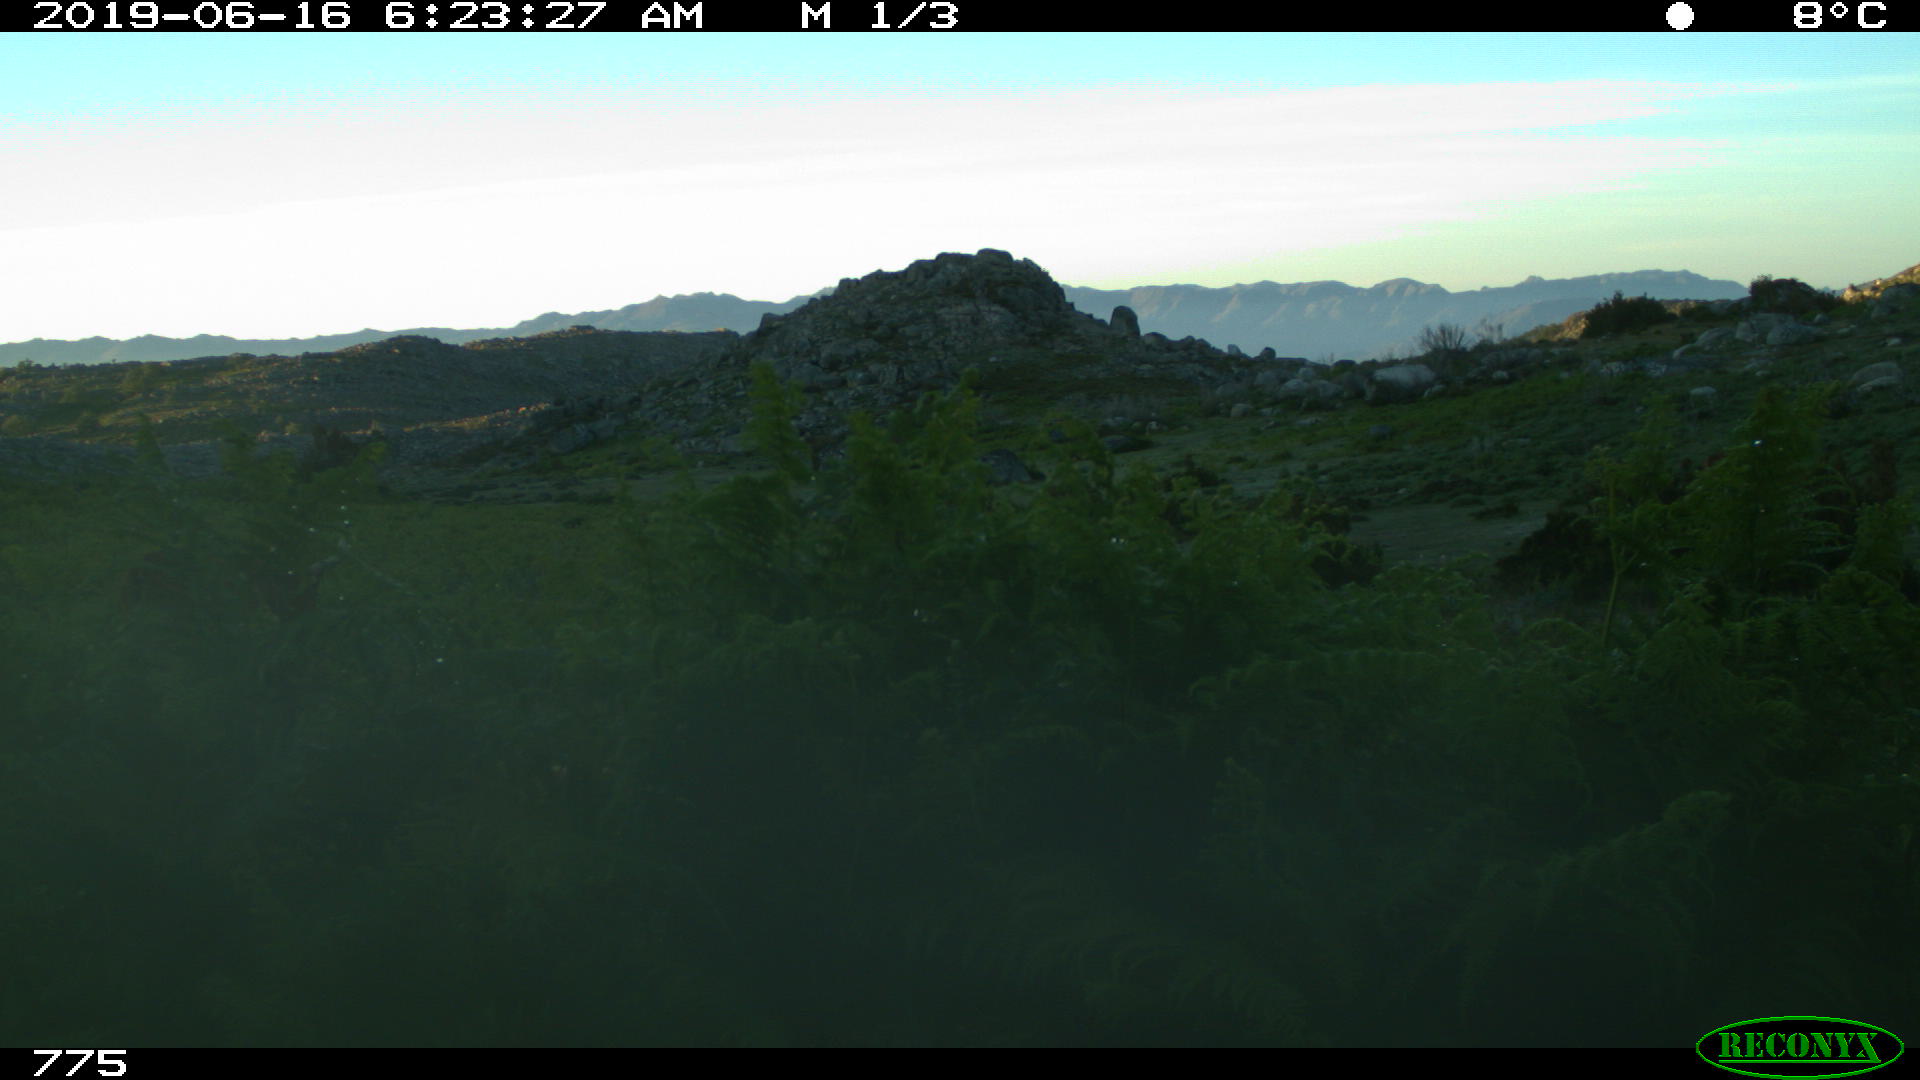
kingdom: Animalia
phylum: Chordata
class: Mammalia
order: Artiodactyla
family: Bovidae
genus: Bos
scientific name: Bos taurus
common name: Domesticated cattle
